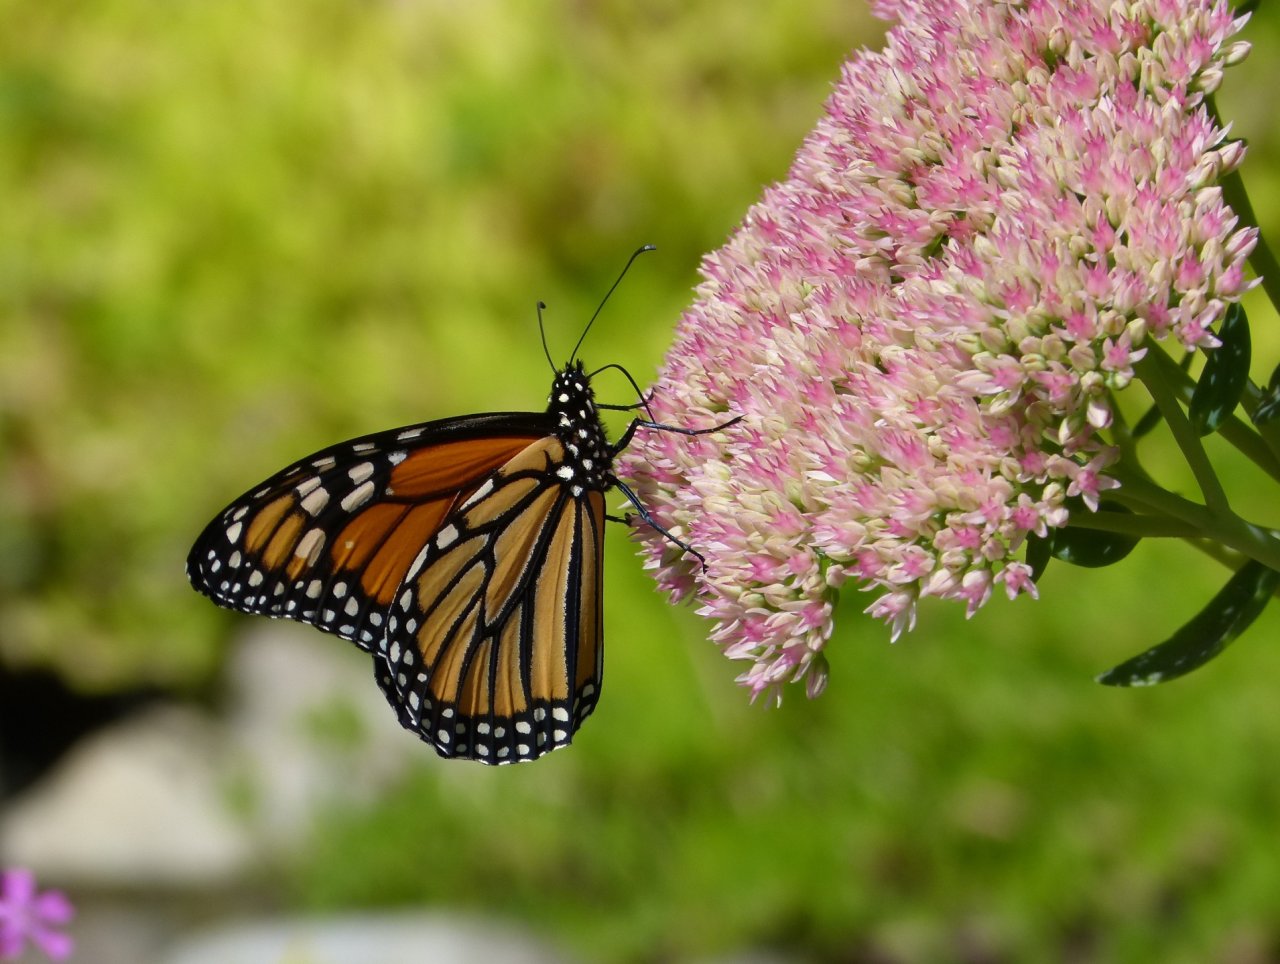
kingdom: Animalia
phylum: Arthropoda
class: Insecta
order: Lepidoptera
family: Nymphalidae
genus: Danaus
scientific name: Danaus plexippus
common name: Monarch
